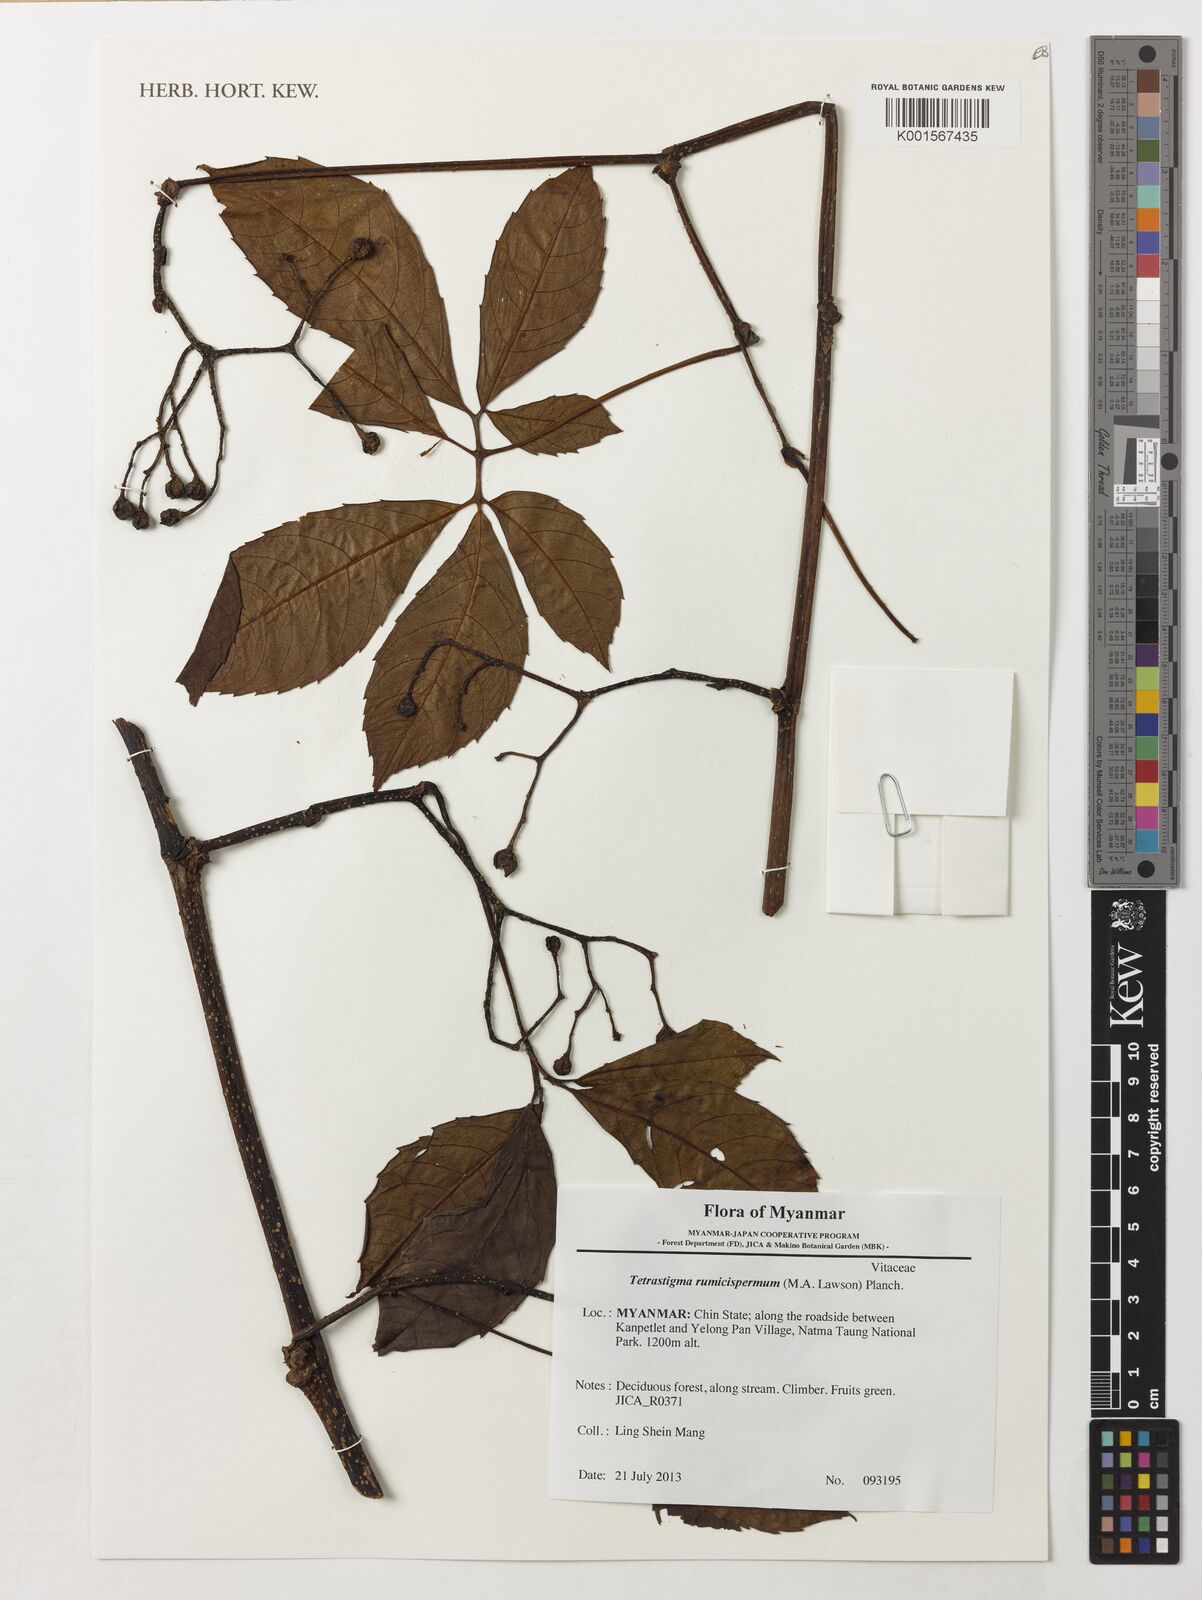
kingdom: Plantae
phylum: Tracheophyta
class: Magnoliopsida
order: Vitales
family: Vitaceae
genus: Tetrastigma
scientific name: Tetrastigma rumicispermum
